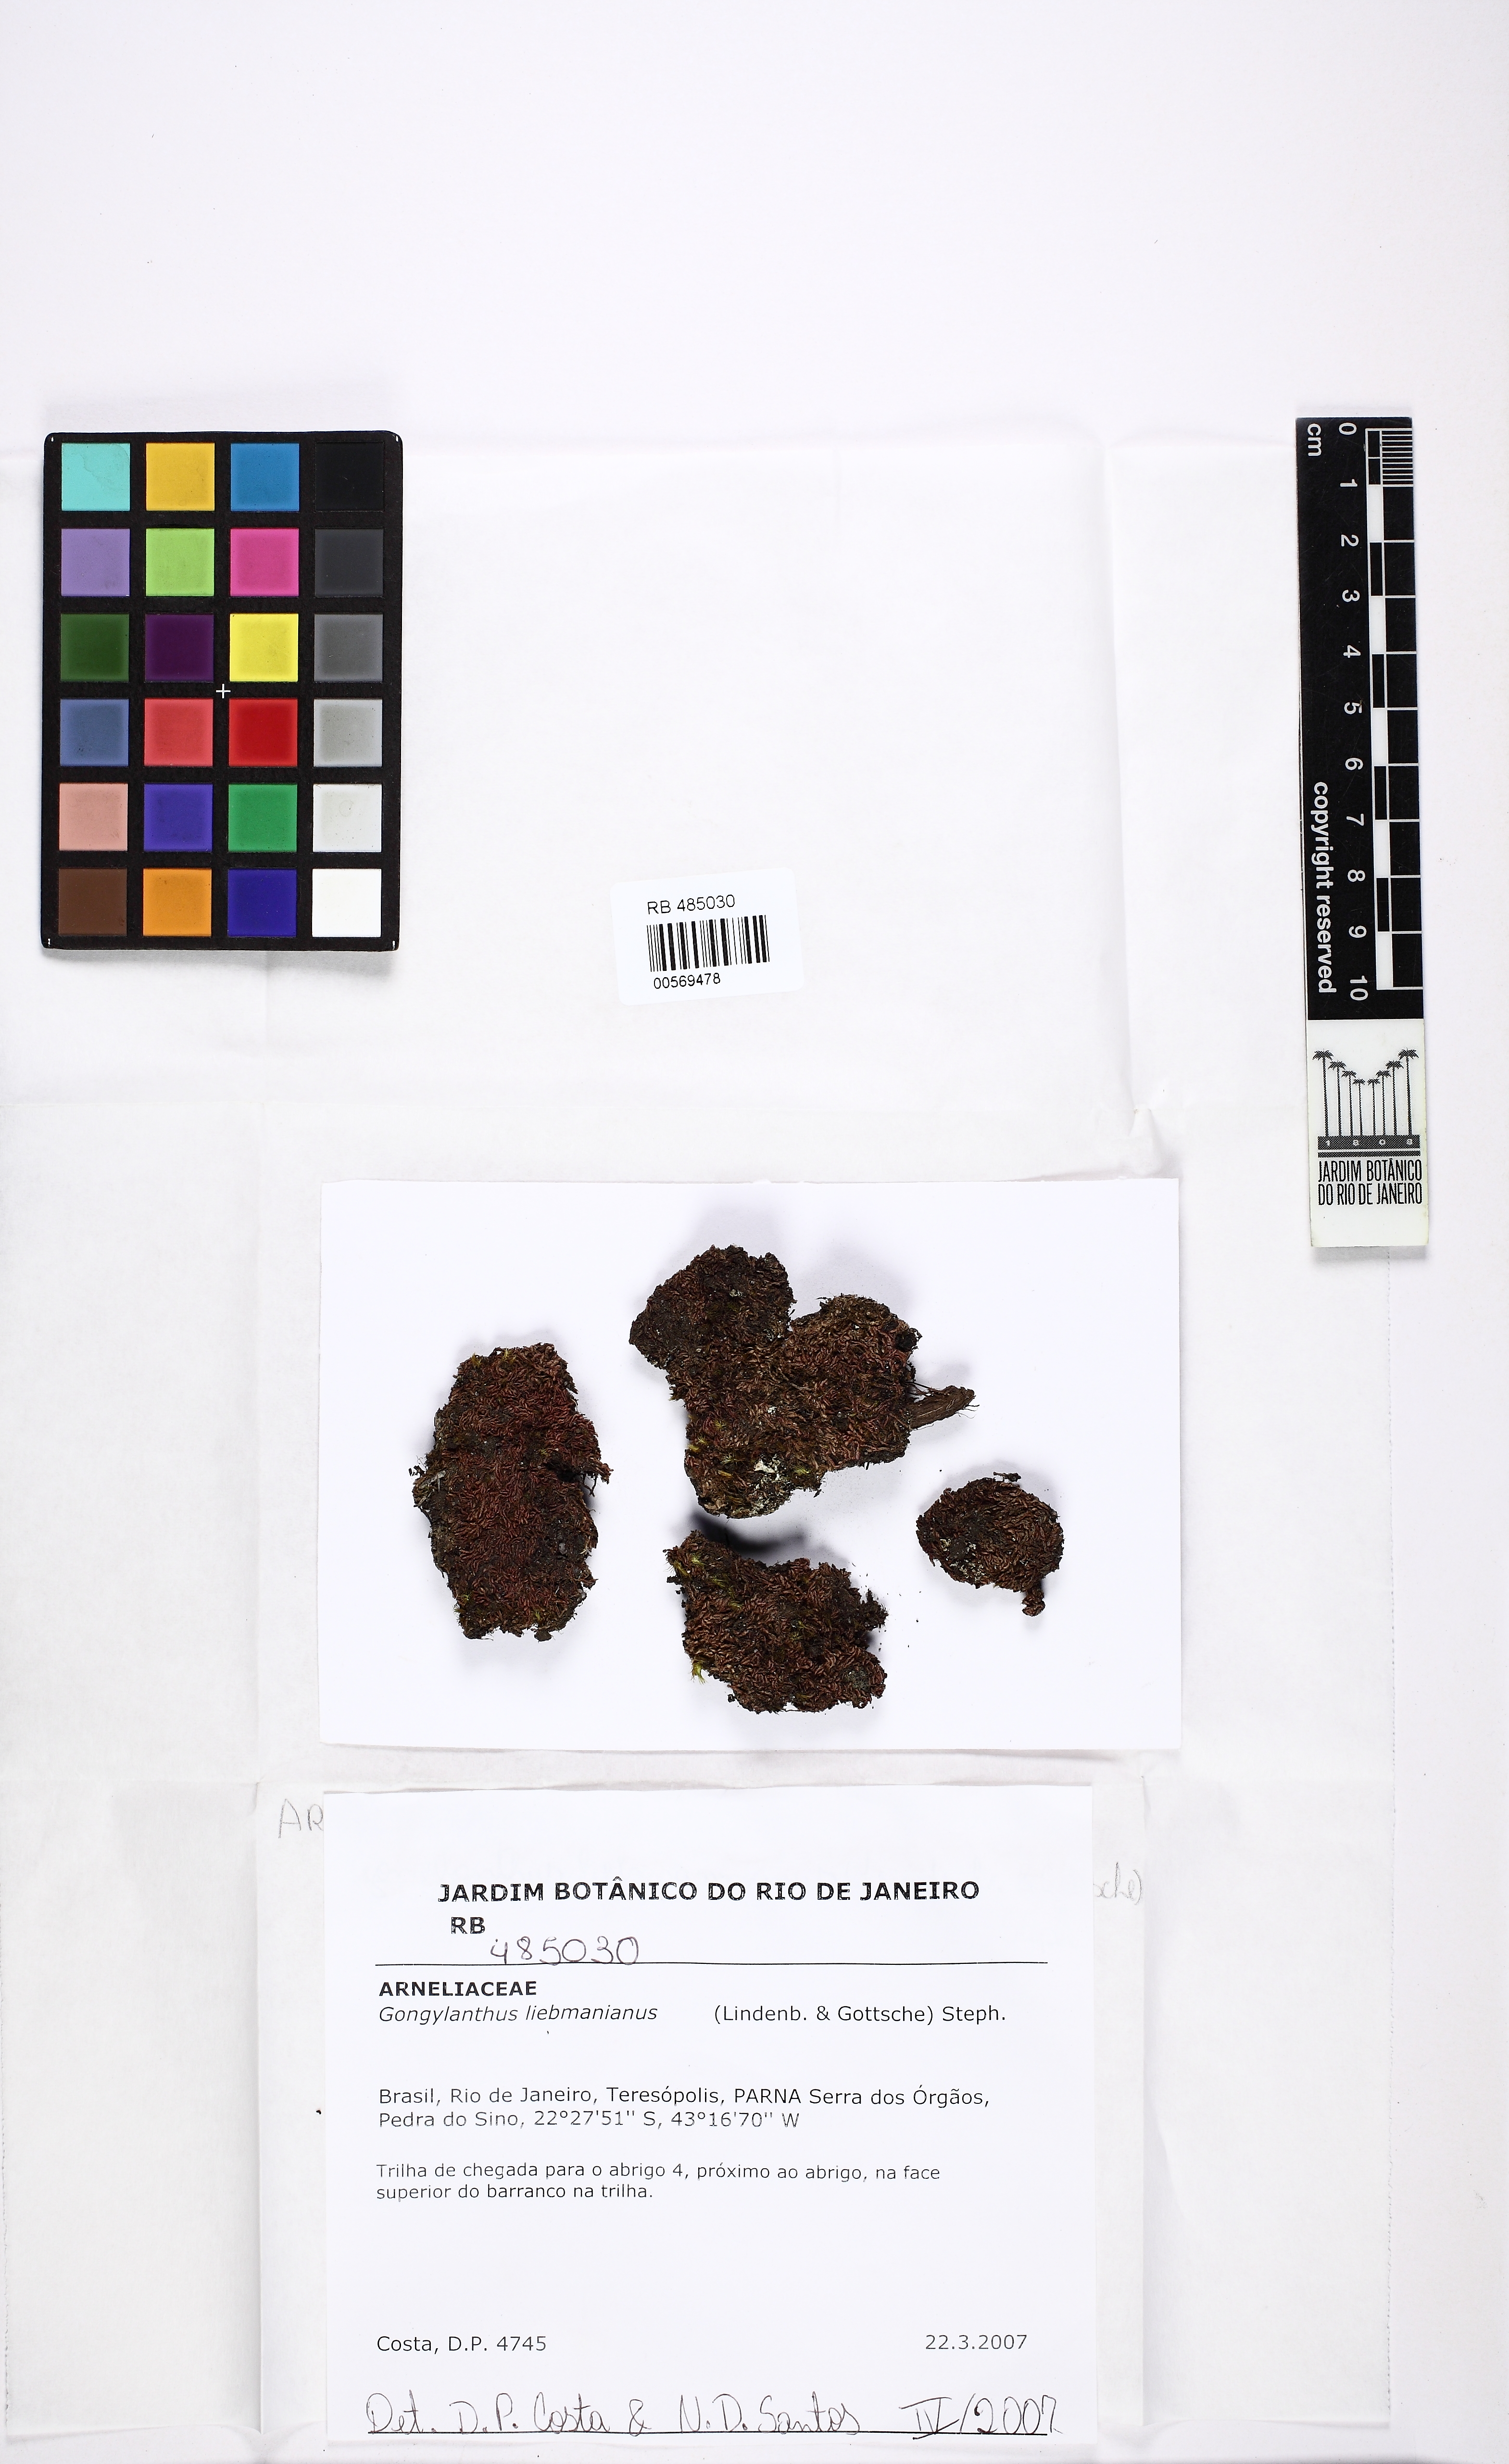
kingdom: Plantae
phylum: Marchantiophyta
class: Jungermanniopsida
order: Jungermanniales
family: Southbyaceae
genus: Gongylanthus
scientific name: Gongylanthus liebmannianus
